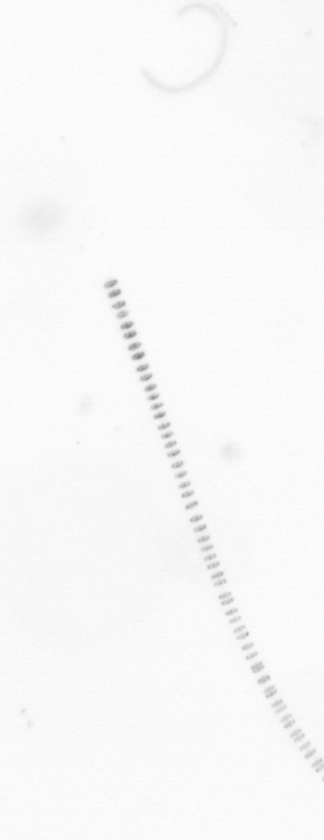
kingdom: Chromista
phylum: Ochrophyta
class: Bacillariophyceae
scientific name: Bacillariophyceae
